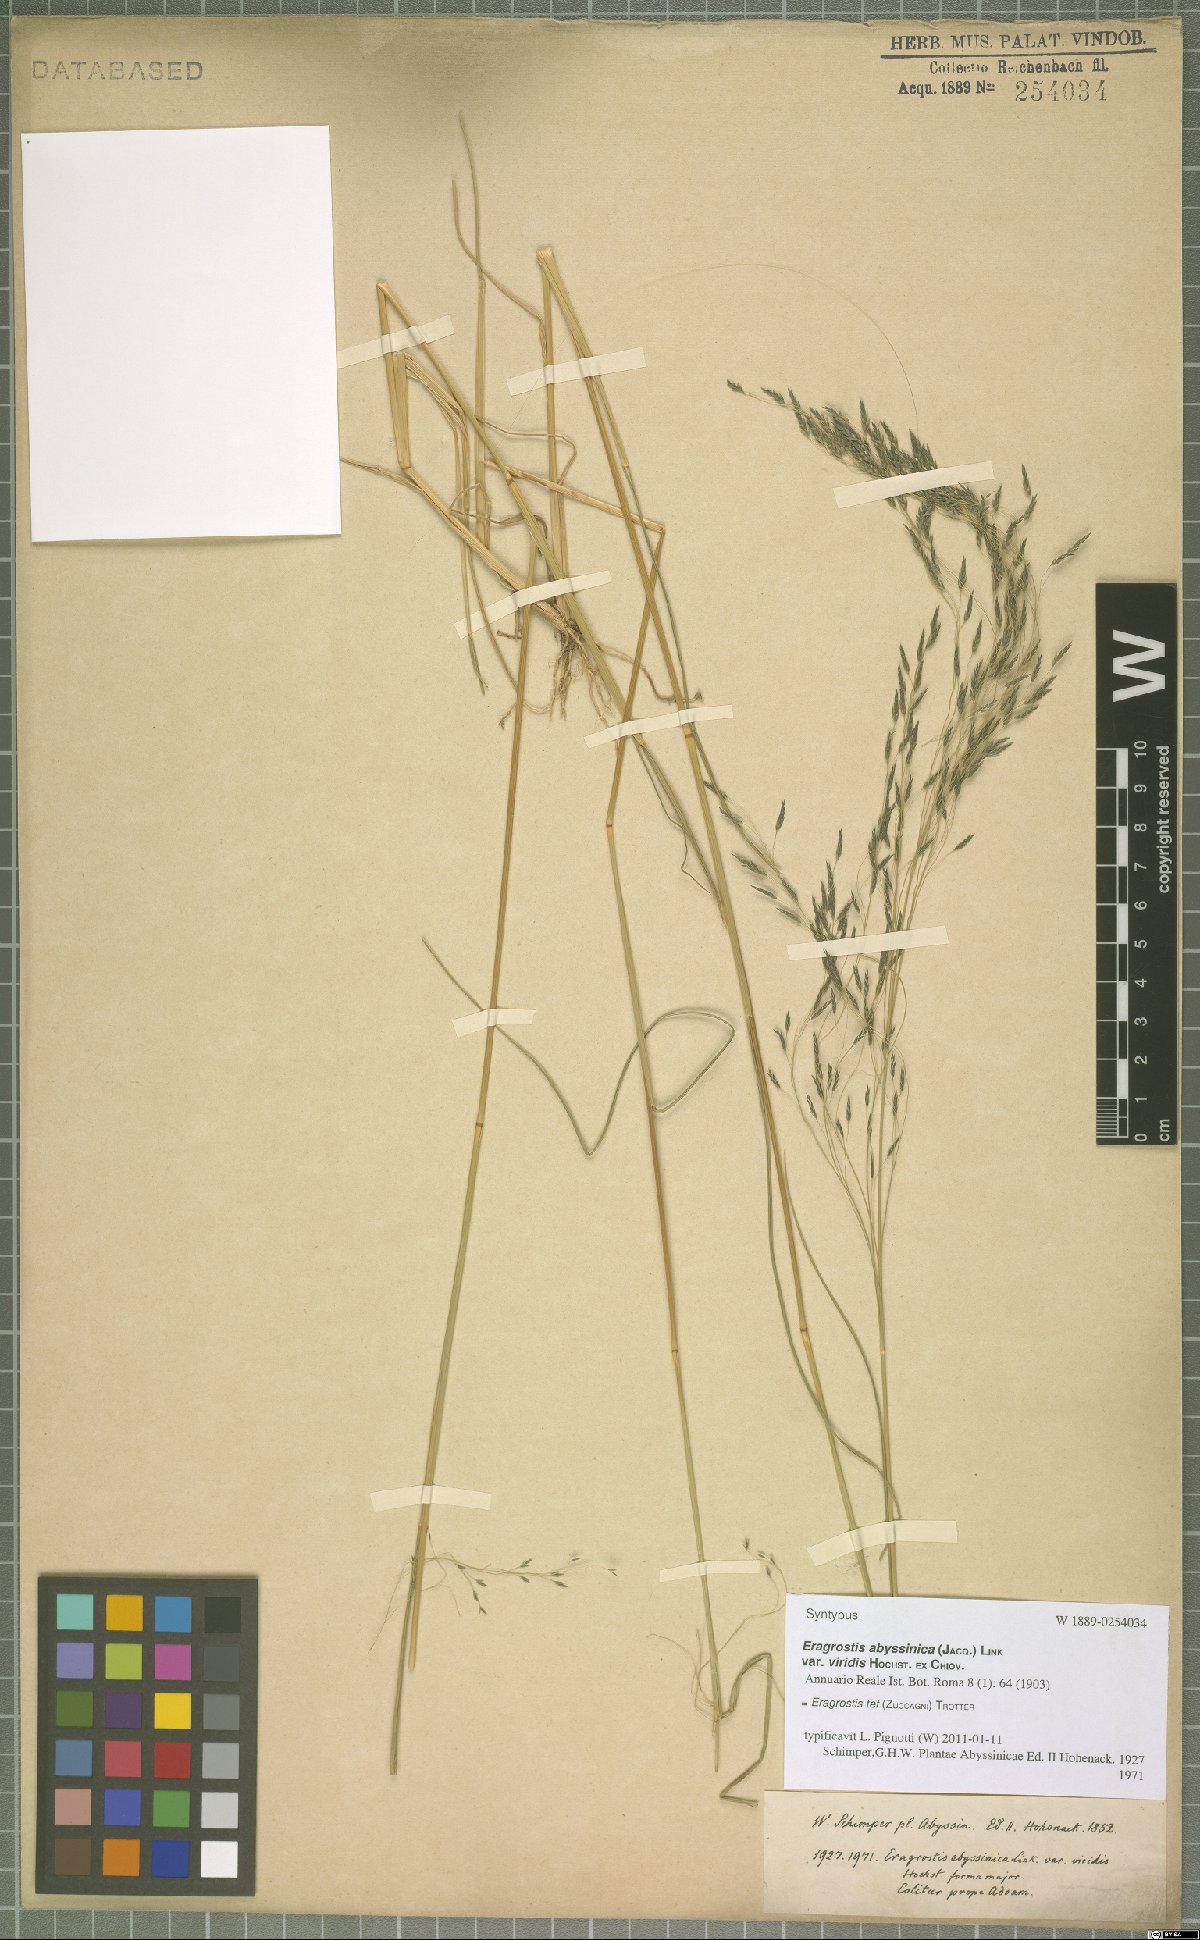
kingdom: Plantae
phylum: Tracheophyta
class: Liliopsida
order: Poales
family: Poaceae
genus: Eragrostis
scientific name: Eragrostis tef
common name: Teff
